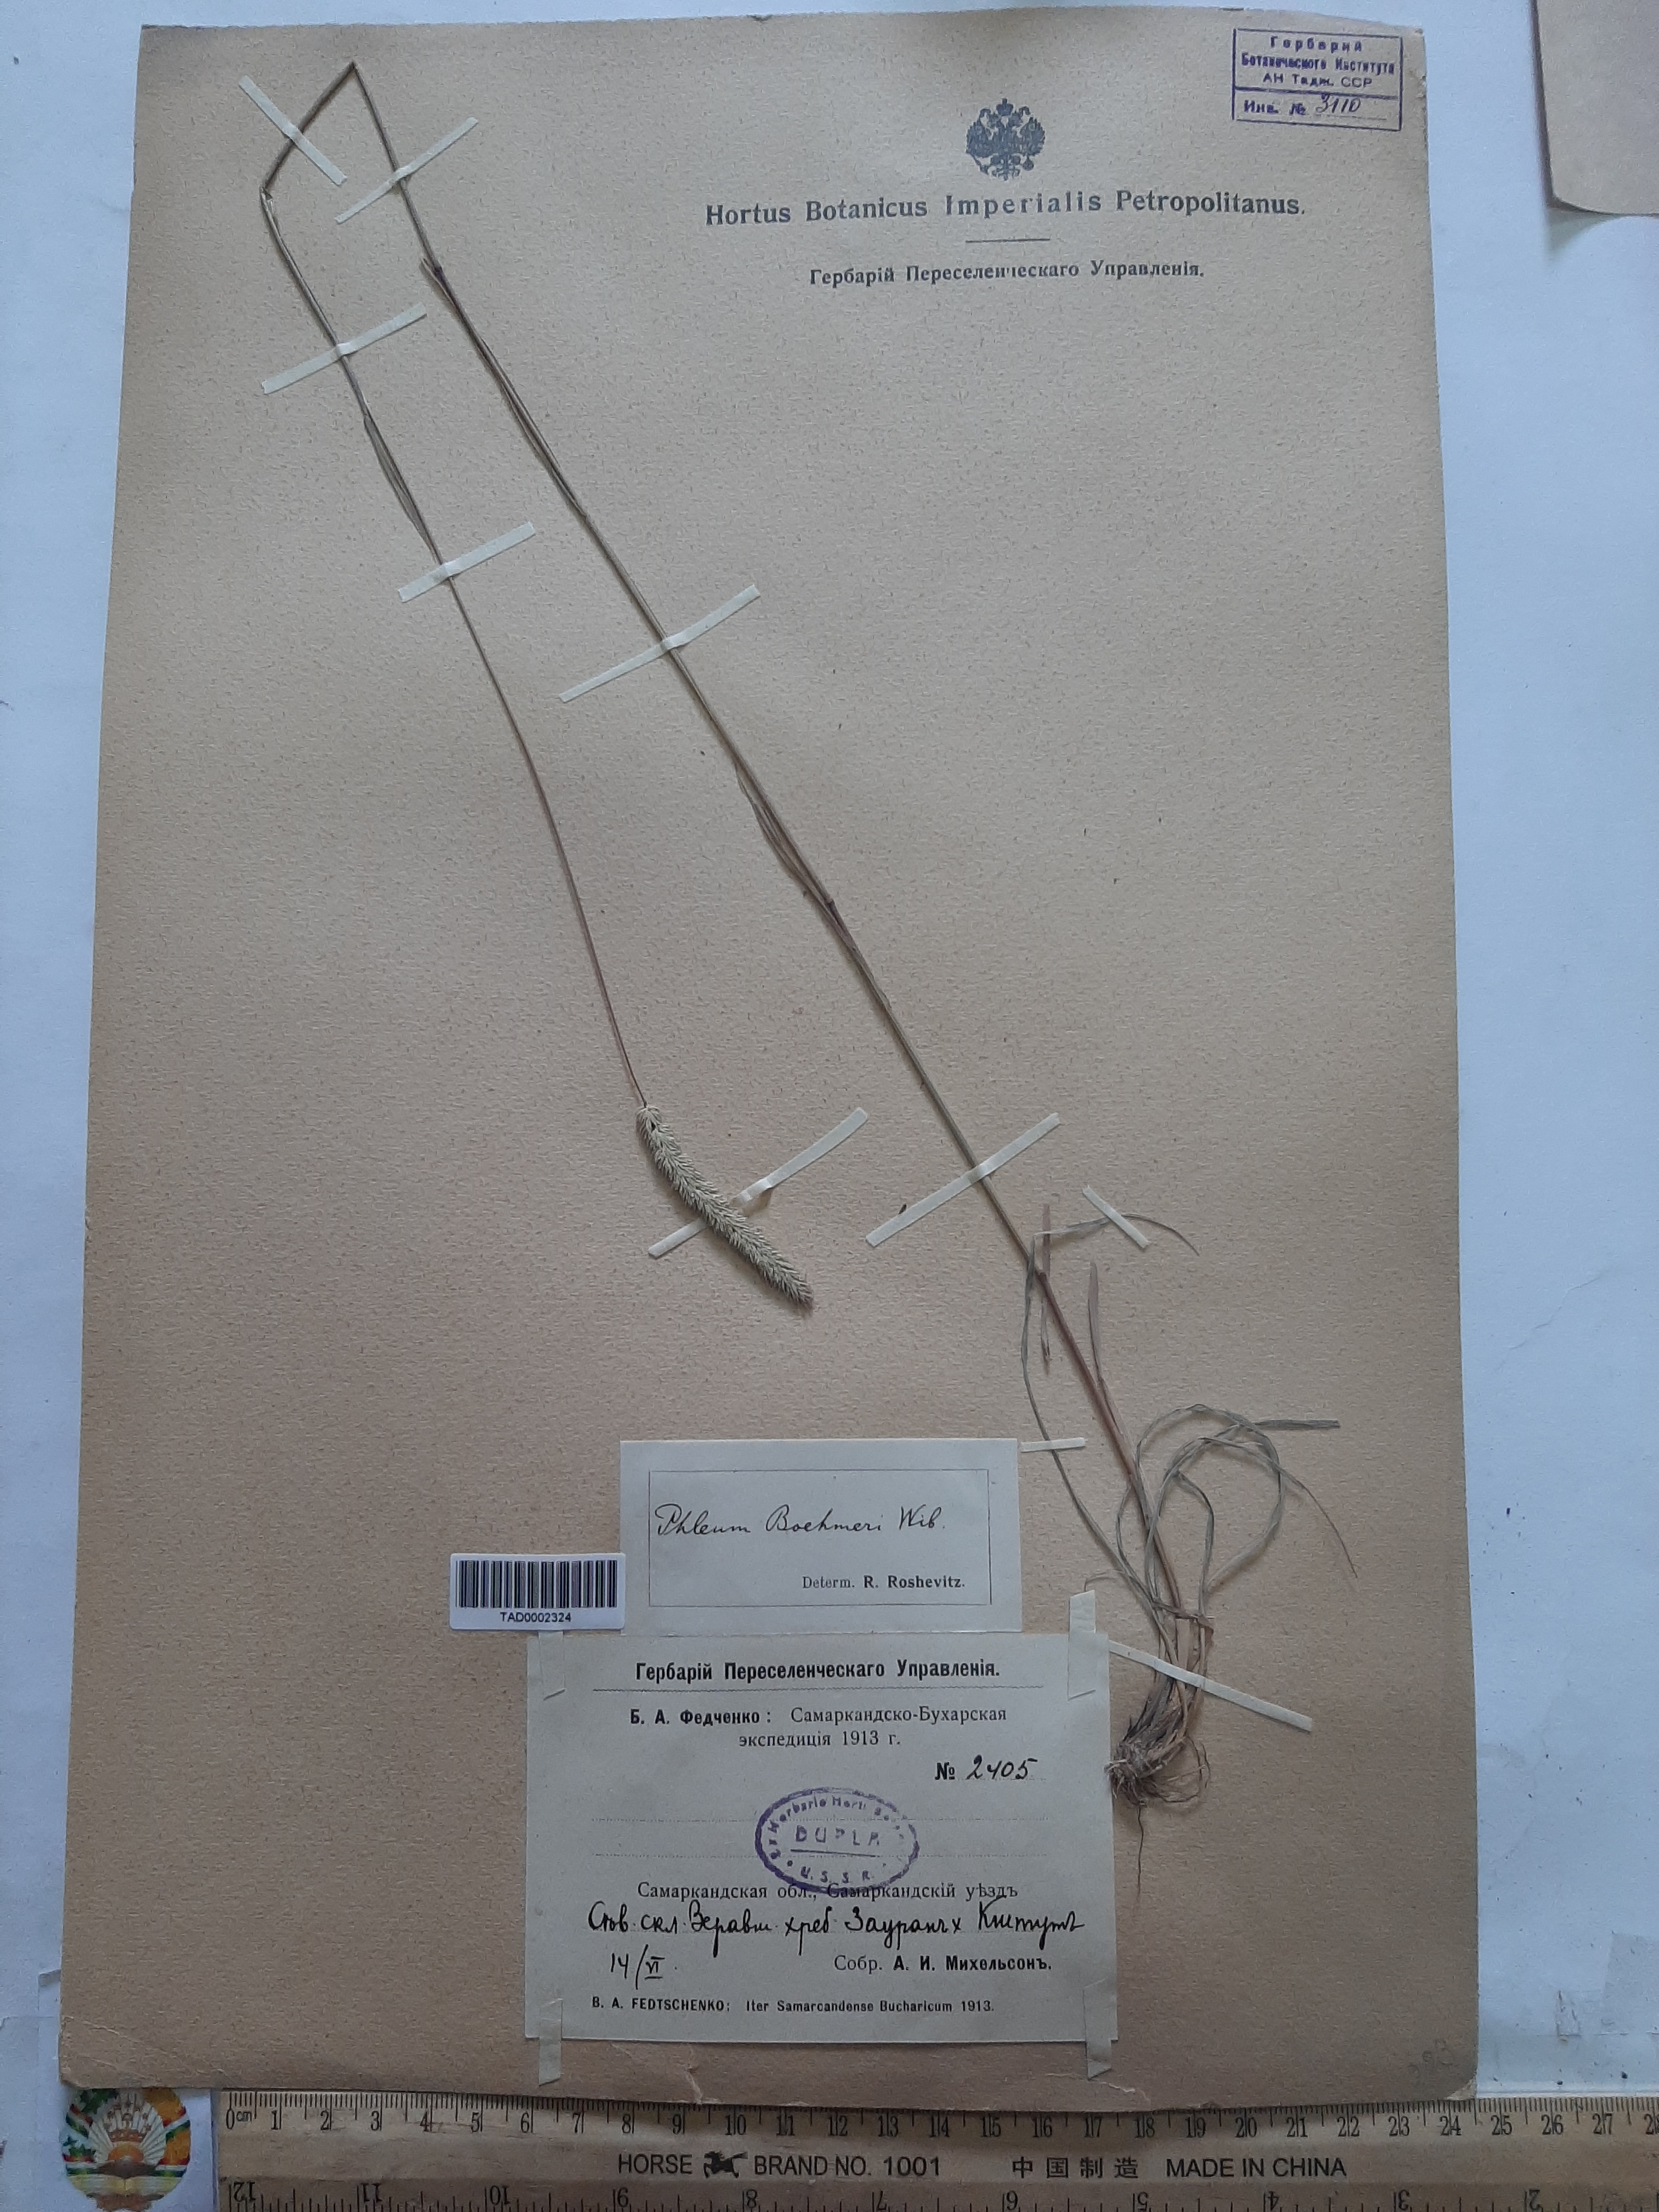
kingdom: Plantae
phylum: Tracheophyta
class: Liliopsida
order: Poales
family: Poaceae
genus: Phleum
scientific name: Phleum phleoides
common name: Purple-stem cat's-tail
